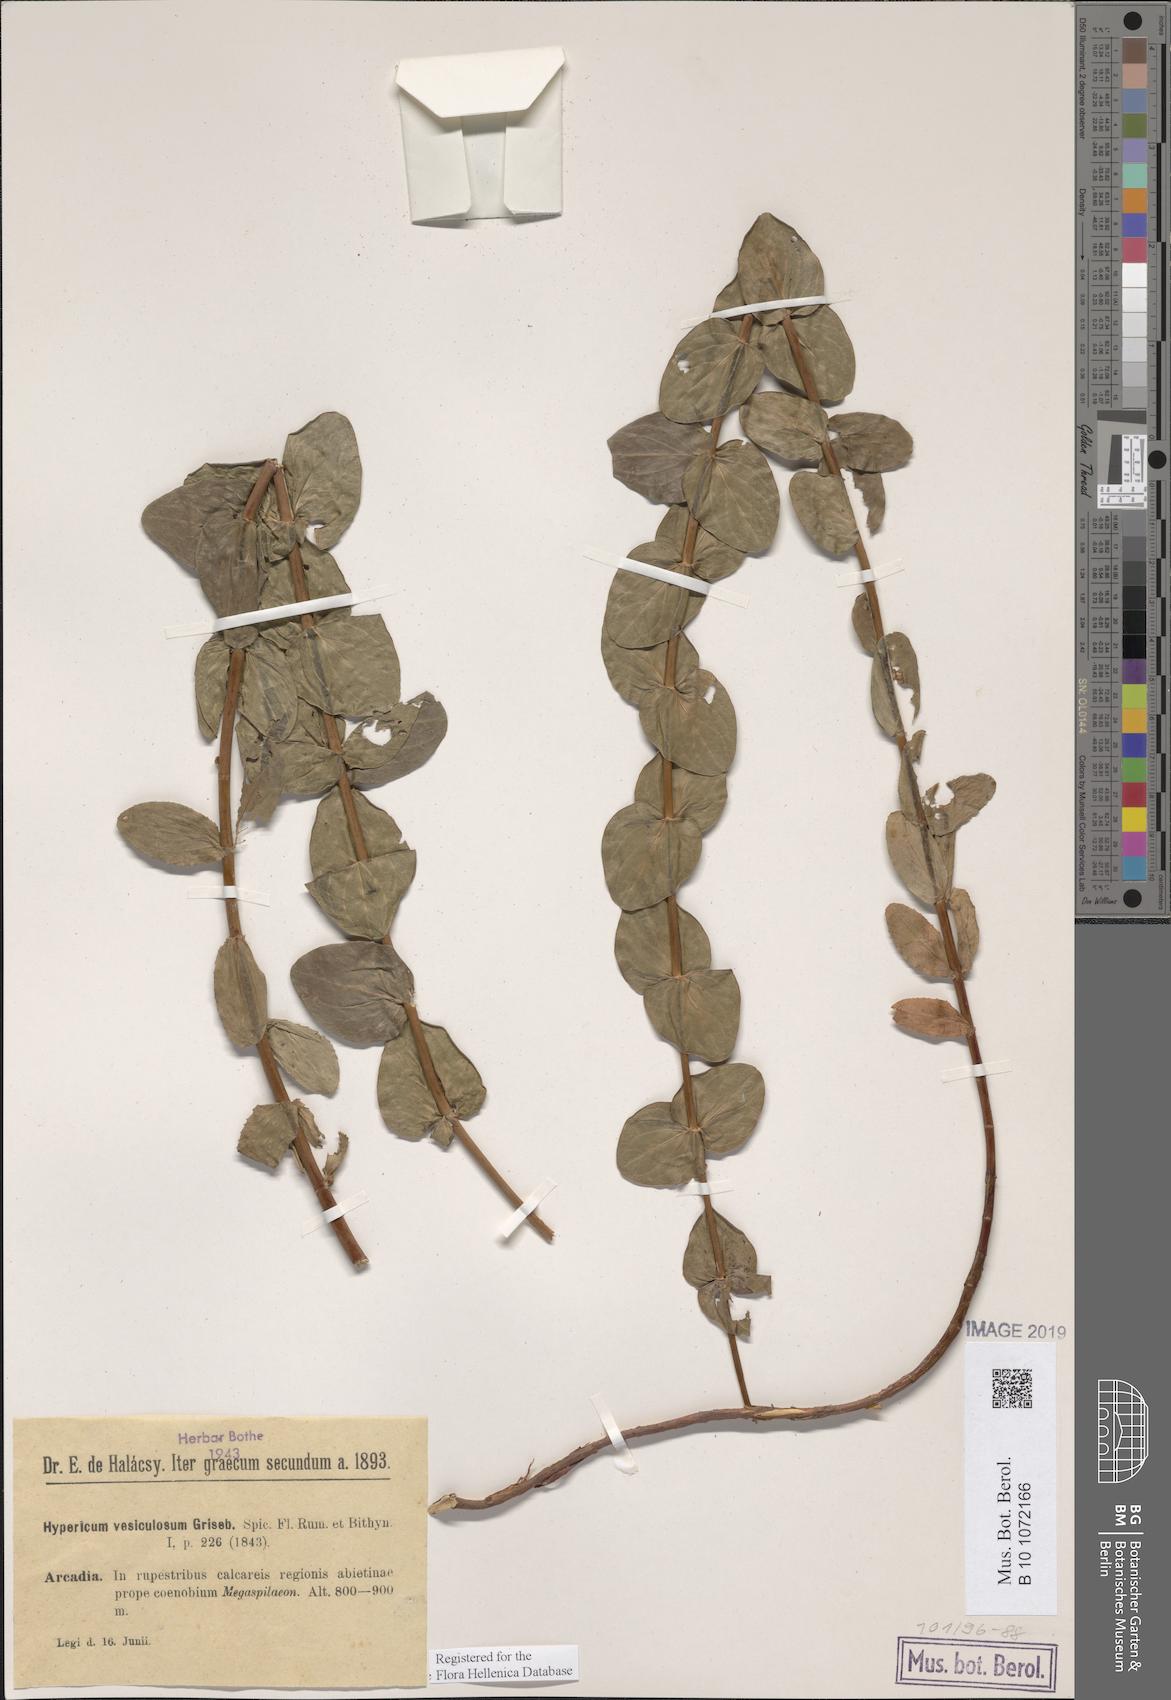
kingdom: Plantae
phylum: Tracheophyta
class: Magnoliopsida
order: Malpighiales
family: Hypericaceae
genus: Hypericum
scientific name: Hypericum vesiculosum
